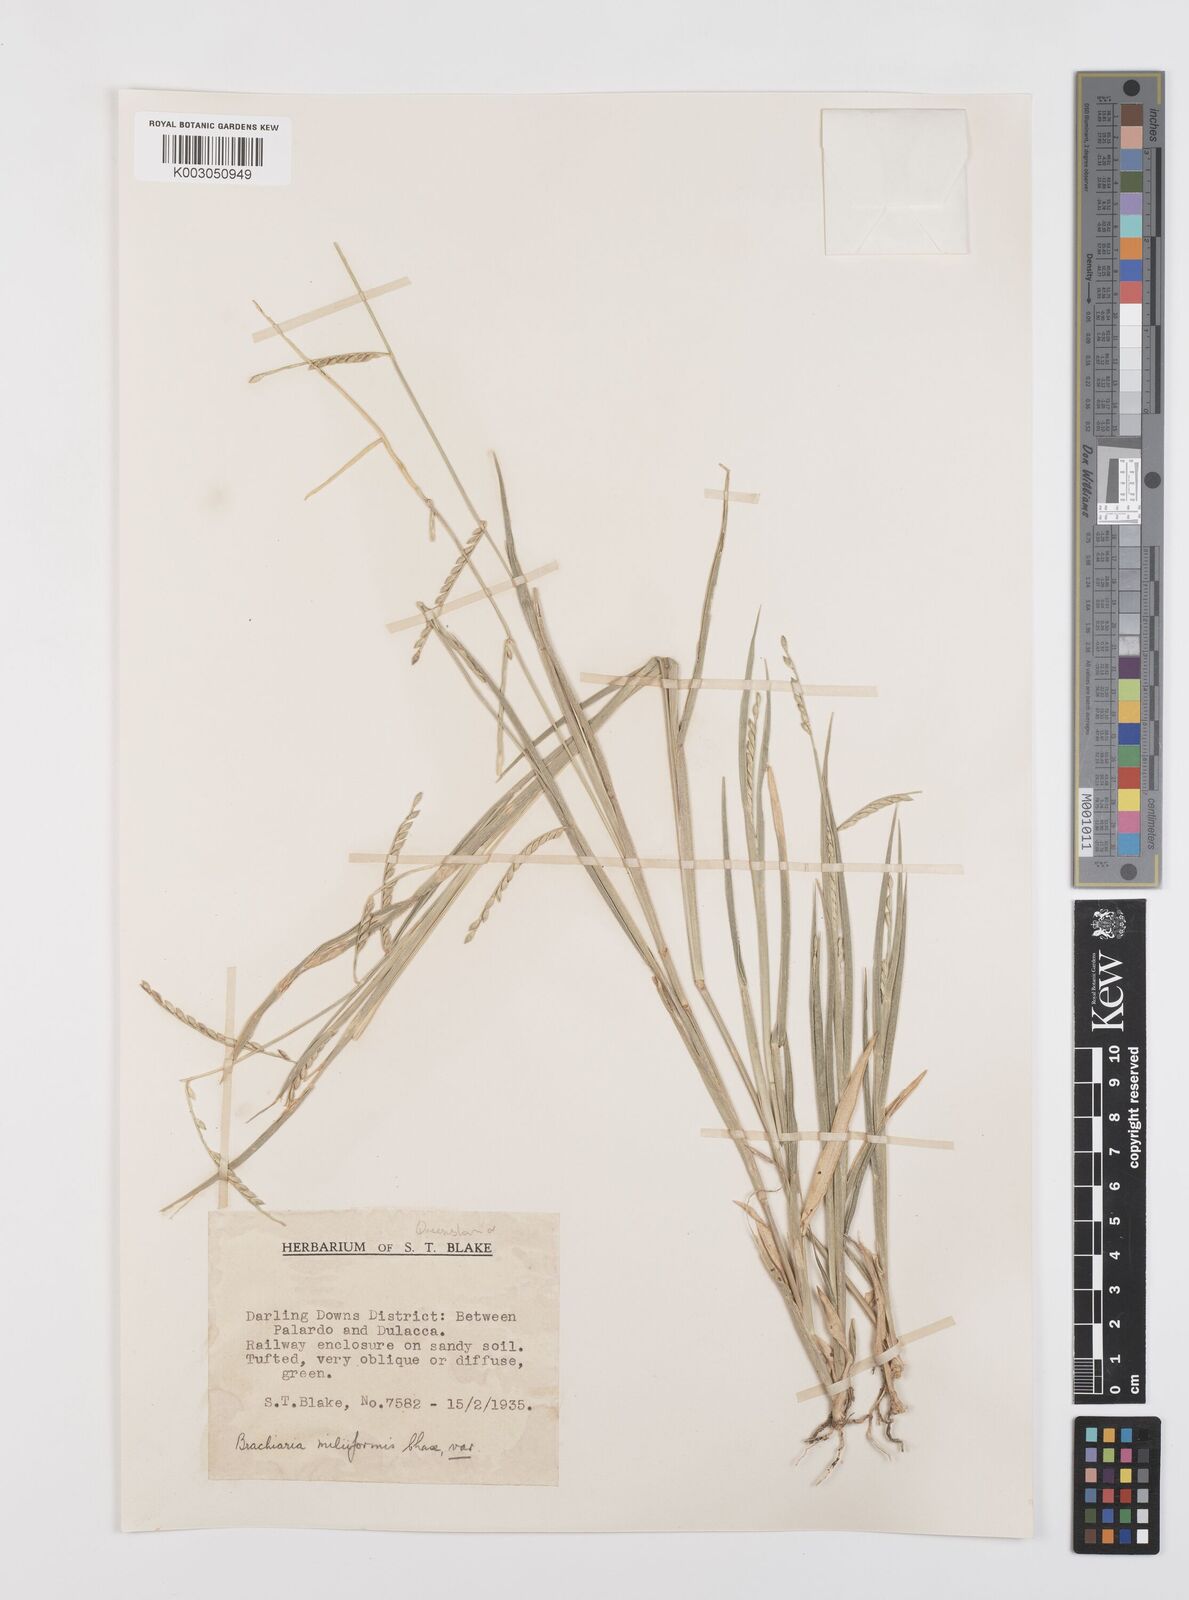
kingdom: Plantae
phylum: Tracheophyta
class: Liliopsida
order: Poales
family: Poaceae
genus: Urochloa
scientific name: Urochloa subquadripara
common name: Armgrass millet
